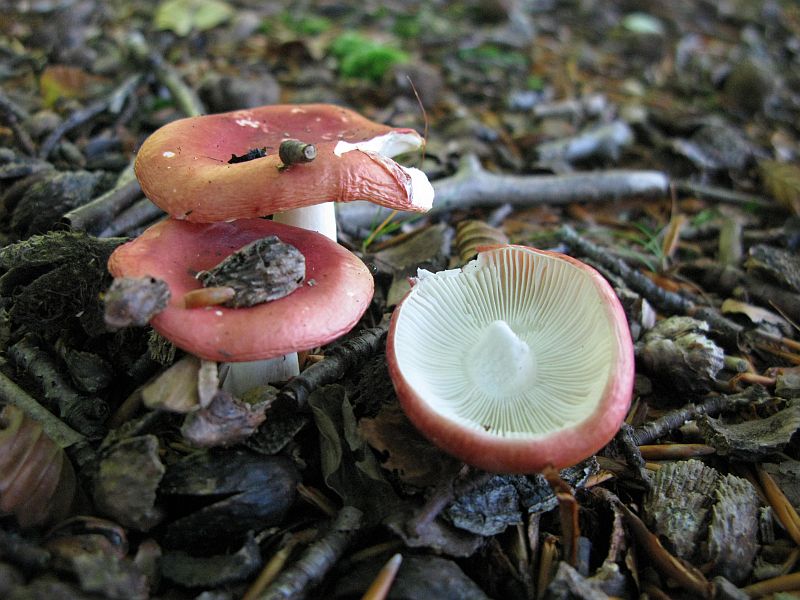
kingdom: Fungi
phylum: Basidiomycota
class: Agaricomycetes
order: Russulales
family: Russulaceae
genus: Russula
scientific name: Russula nobilis
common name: lille gift-skørhat
